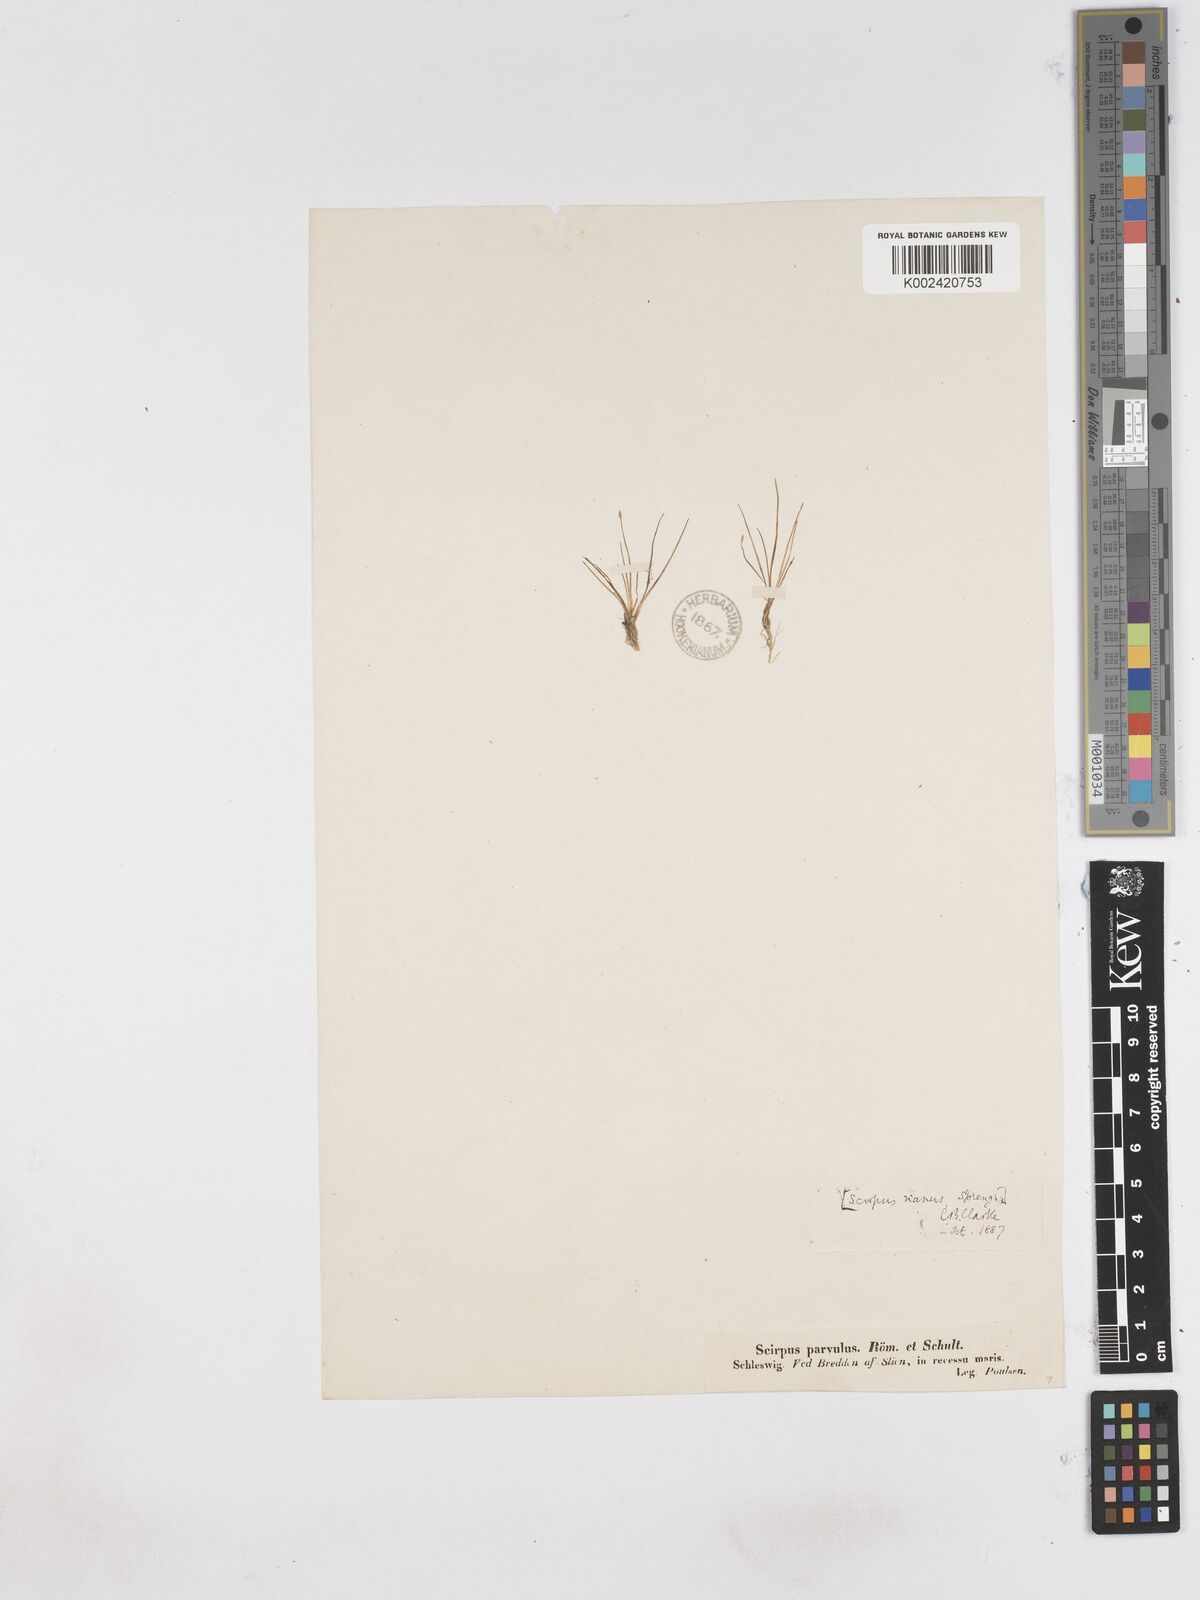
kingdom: Plantae
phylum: Tracheophyta
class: Liliopsida
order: Poales
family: Cyperaceae
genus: Eleocharis
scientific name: Eleocharis parvula
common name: Dwarf spike-rush
